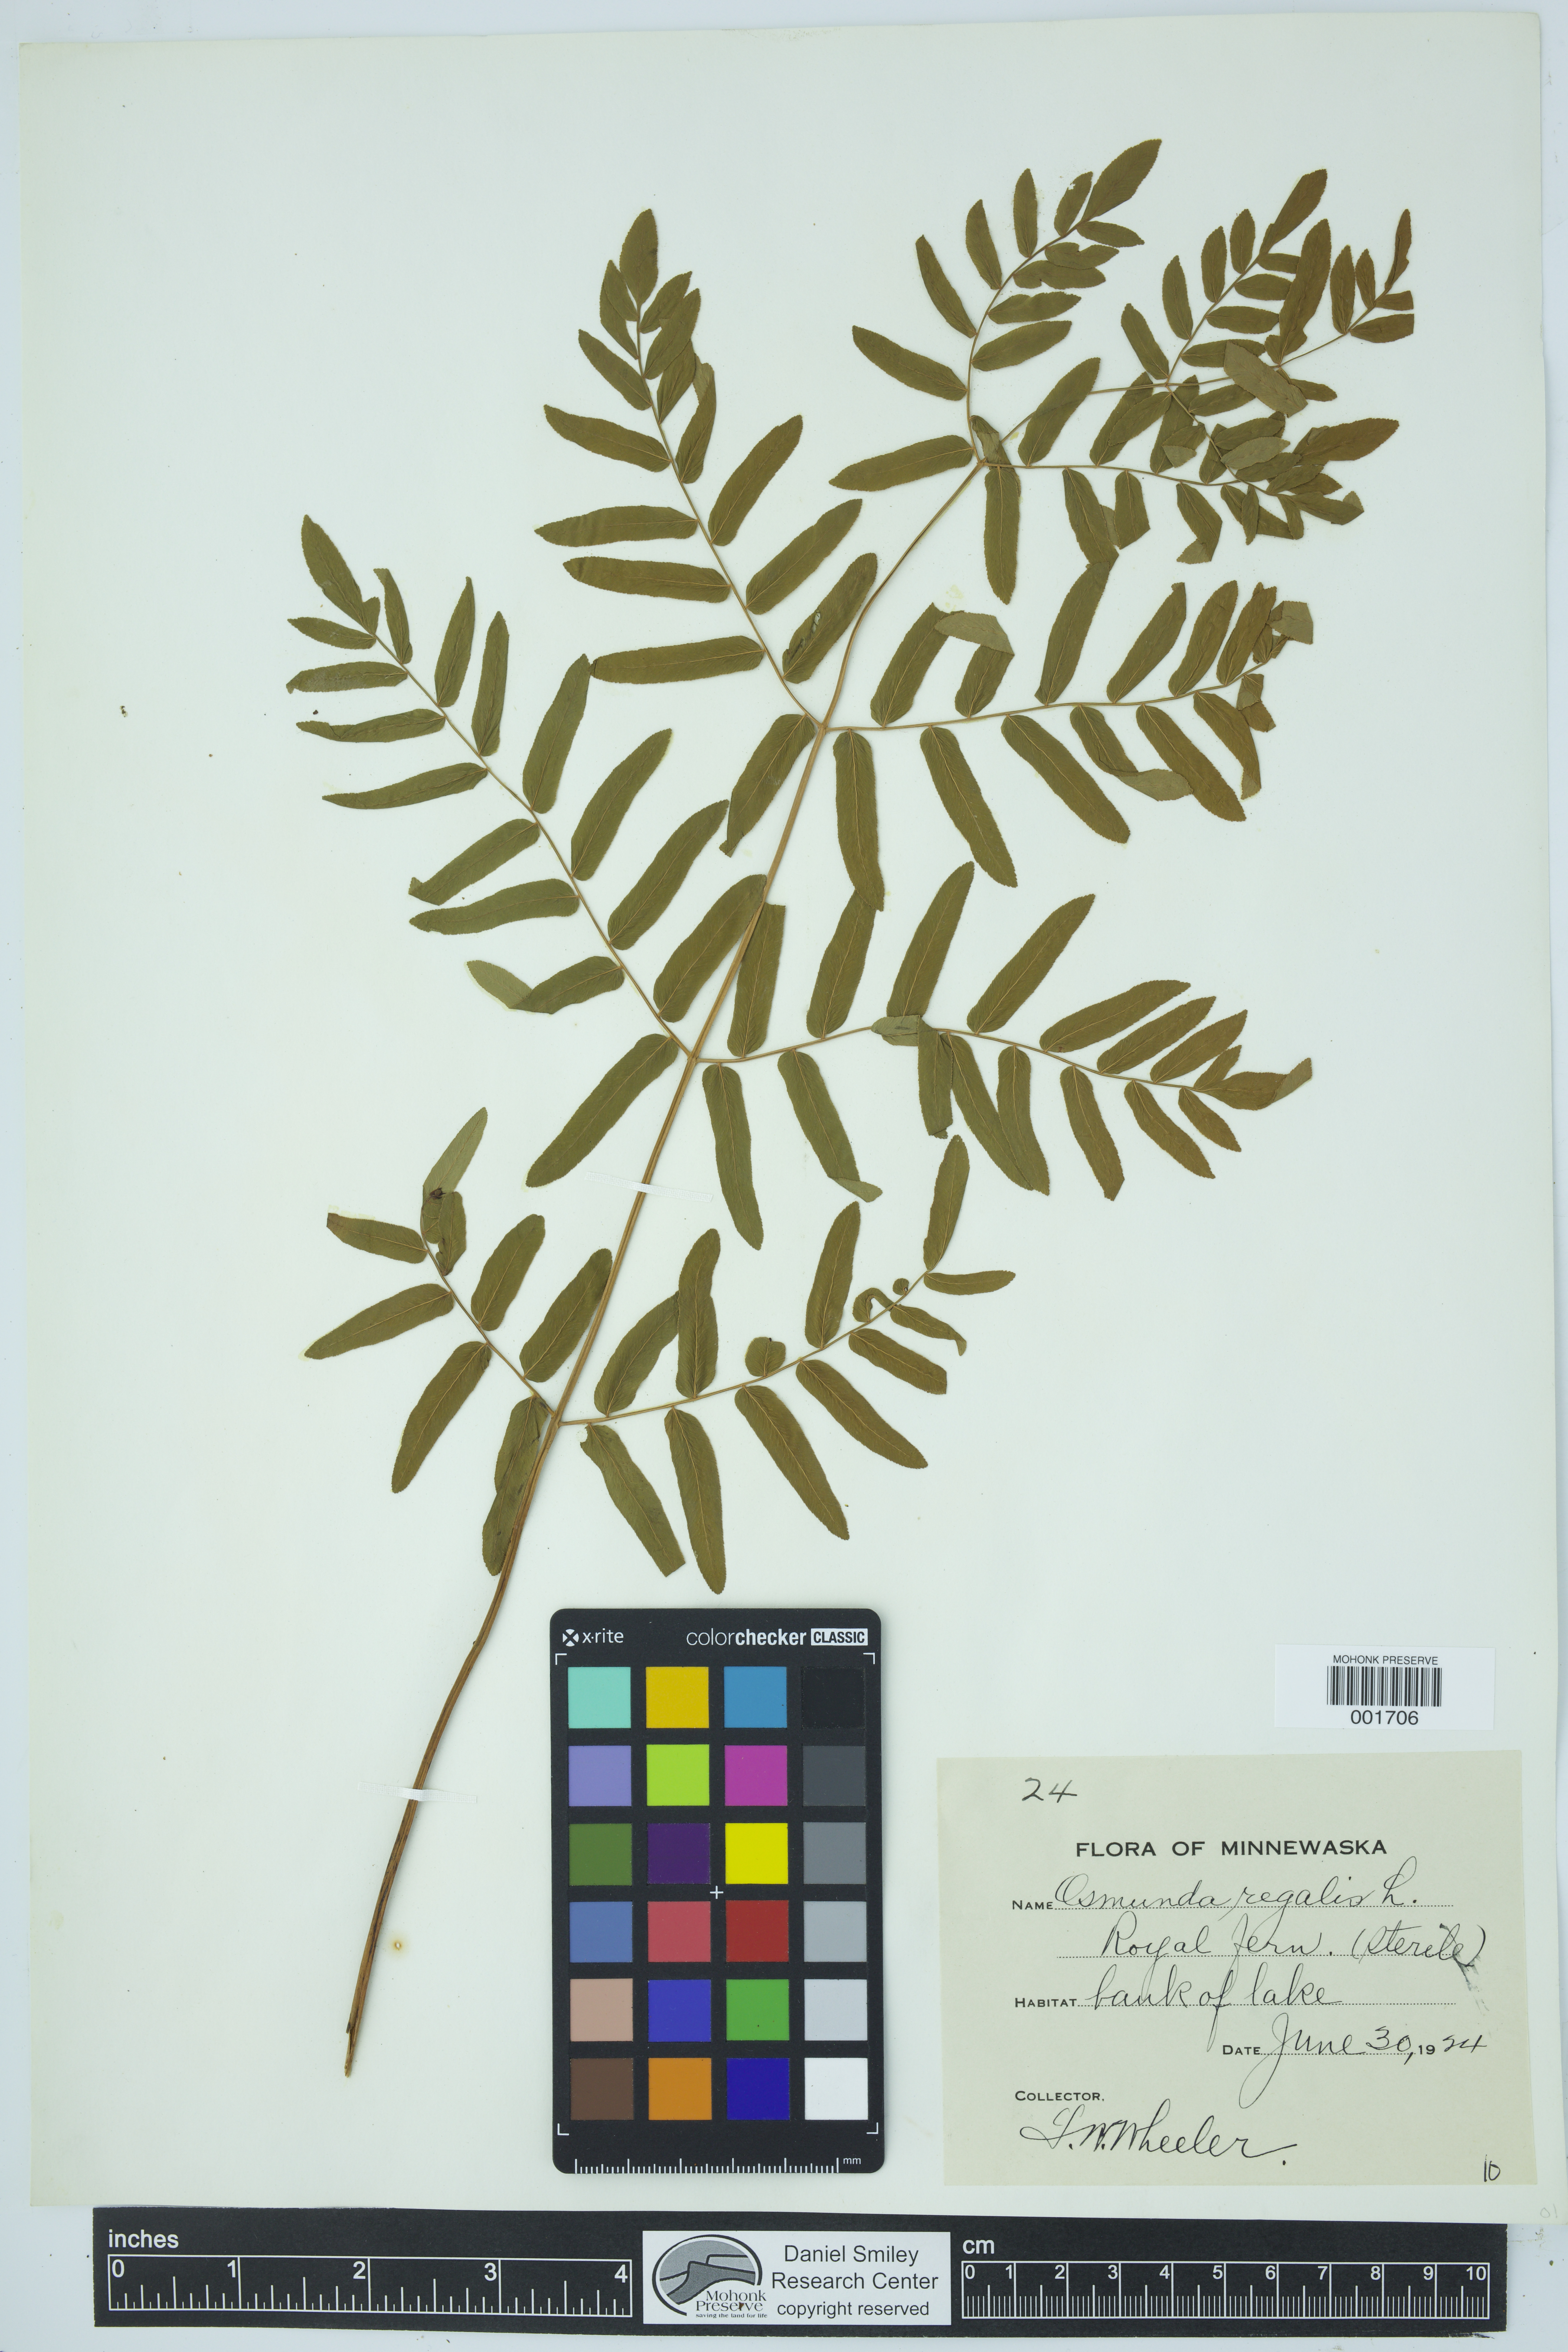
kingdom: Plantae
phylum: Tracheophyta
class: Polypodiopsida
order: Osmundales
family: Osmundaceae
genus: Osmunda
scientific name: Osmunda regalis
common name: Royal fern
